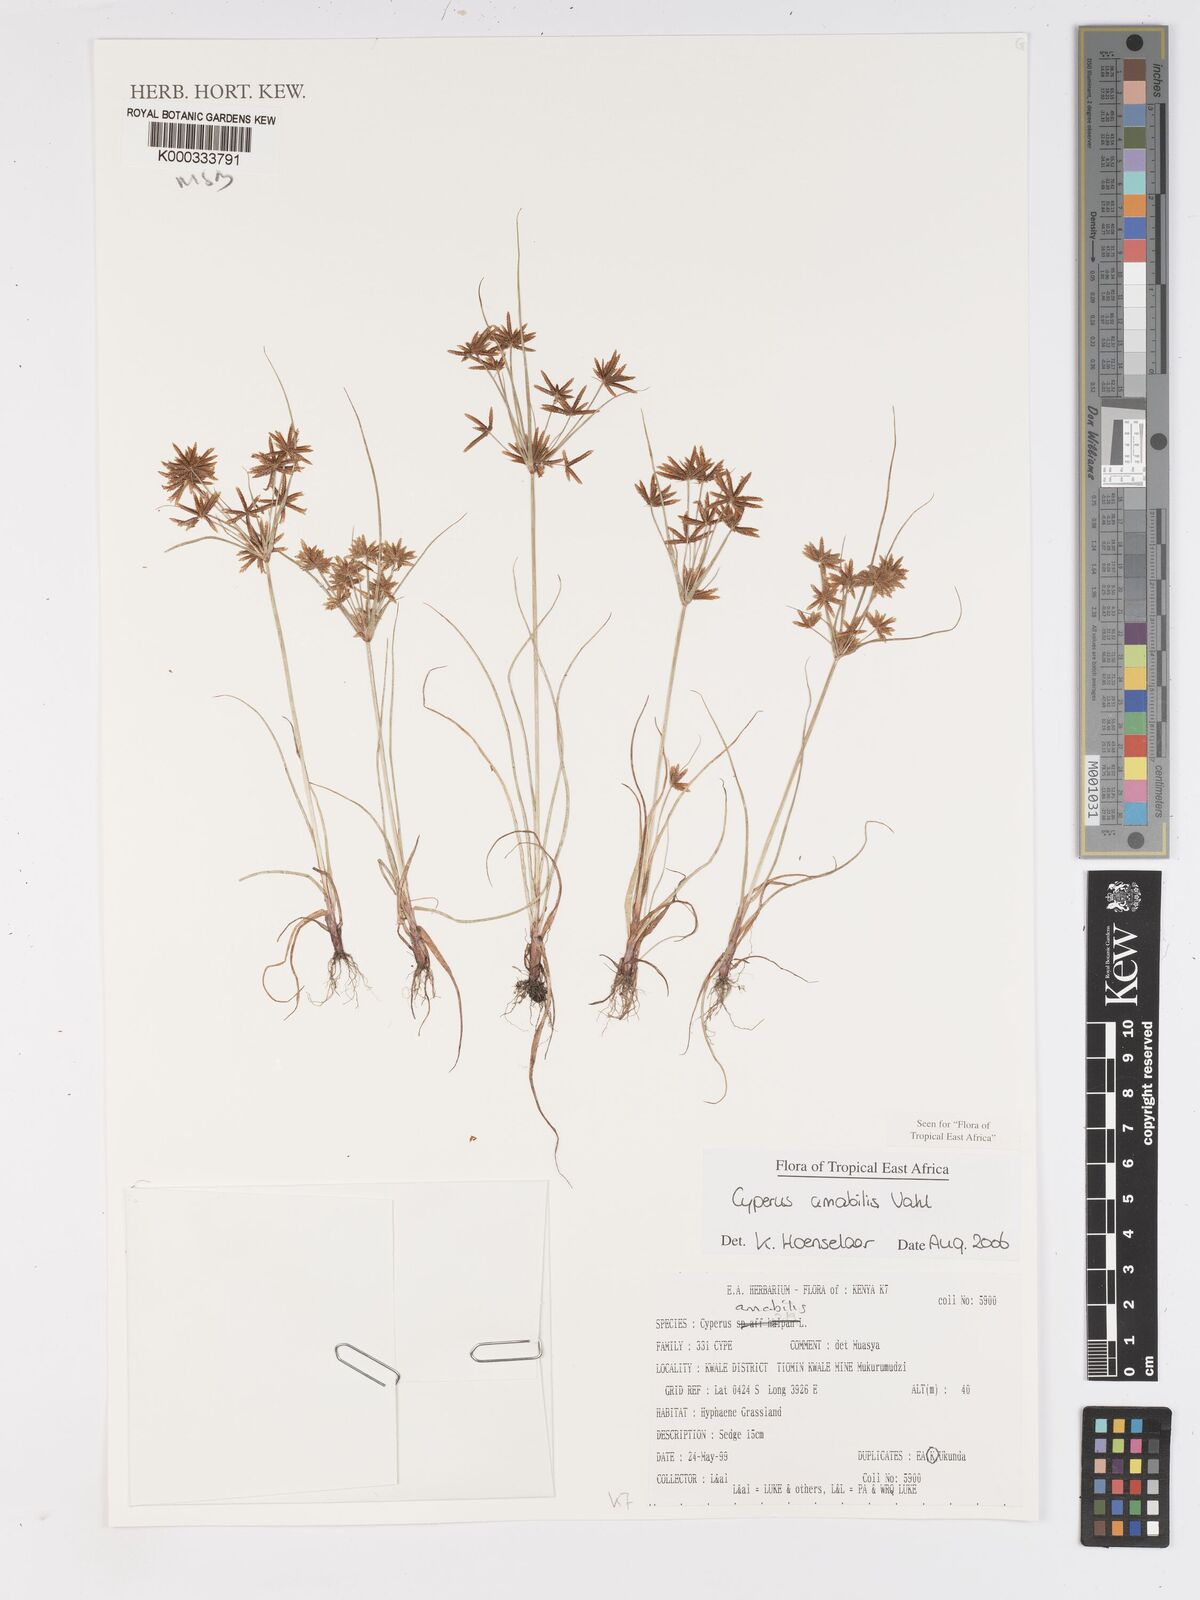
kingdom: Plantae
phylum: Tracheophyta
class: Liliopsida
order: Poales
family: Cyperaceae
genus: Cyperus
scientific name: Cyperus amabilis
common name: Foothill flat sedge
